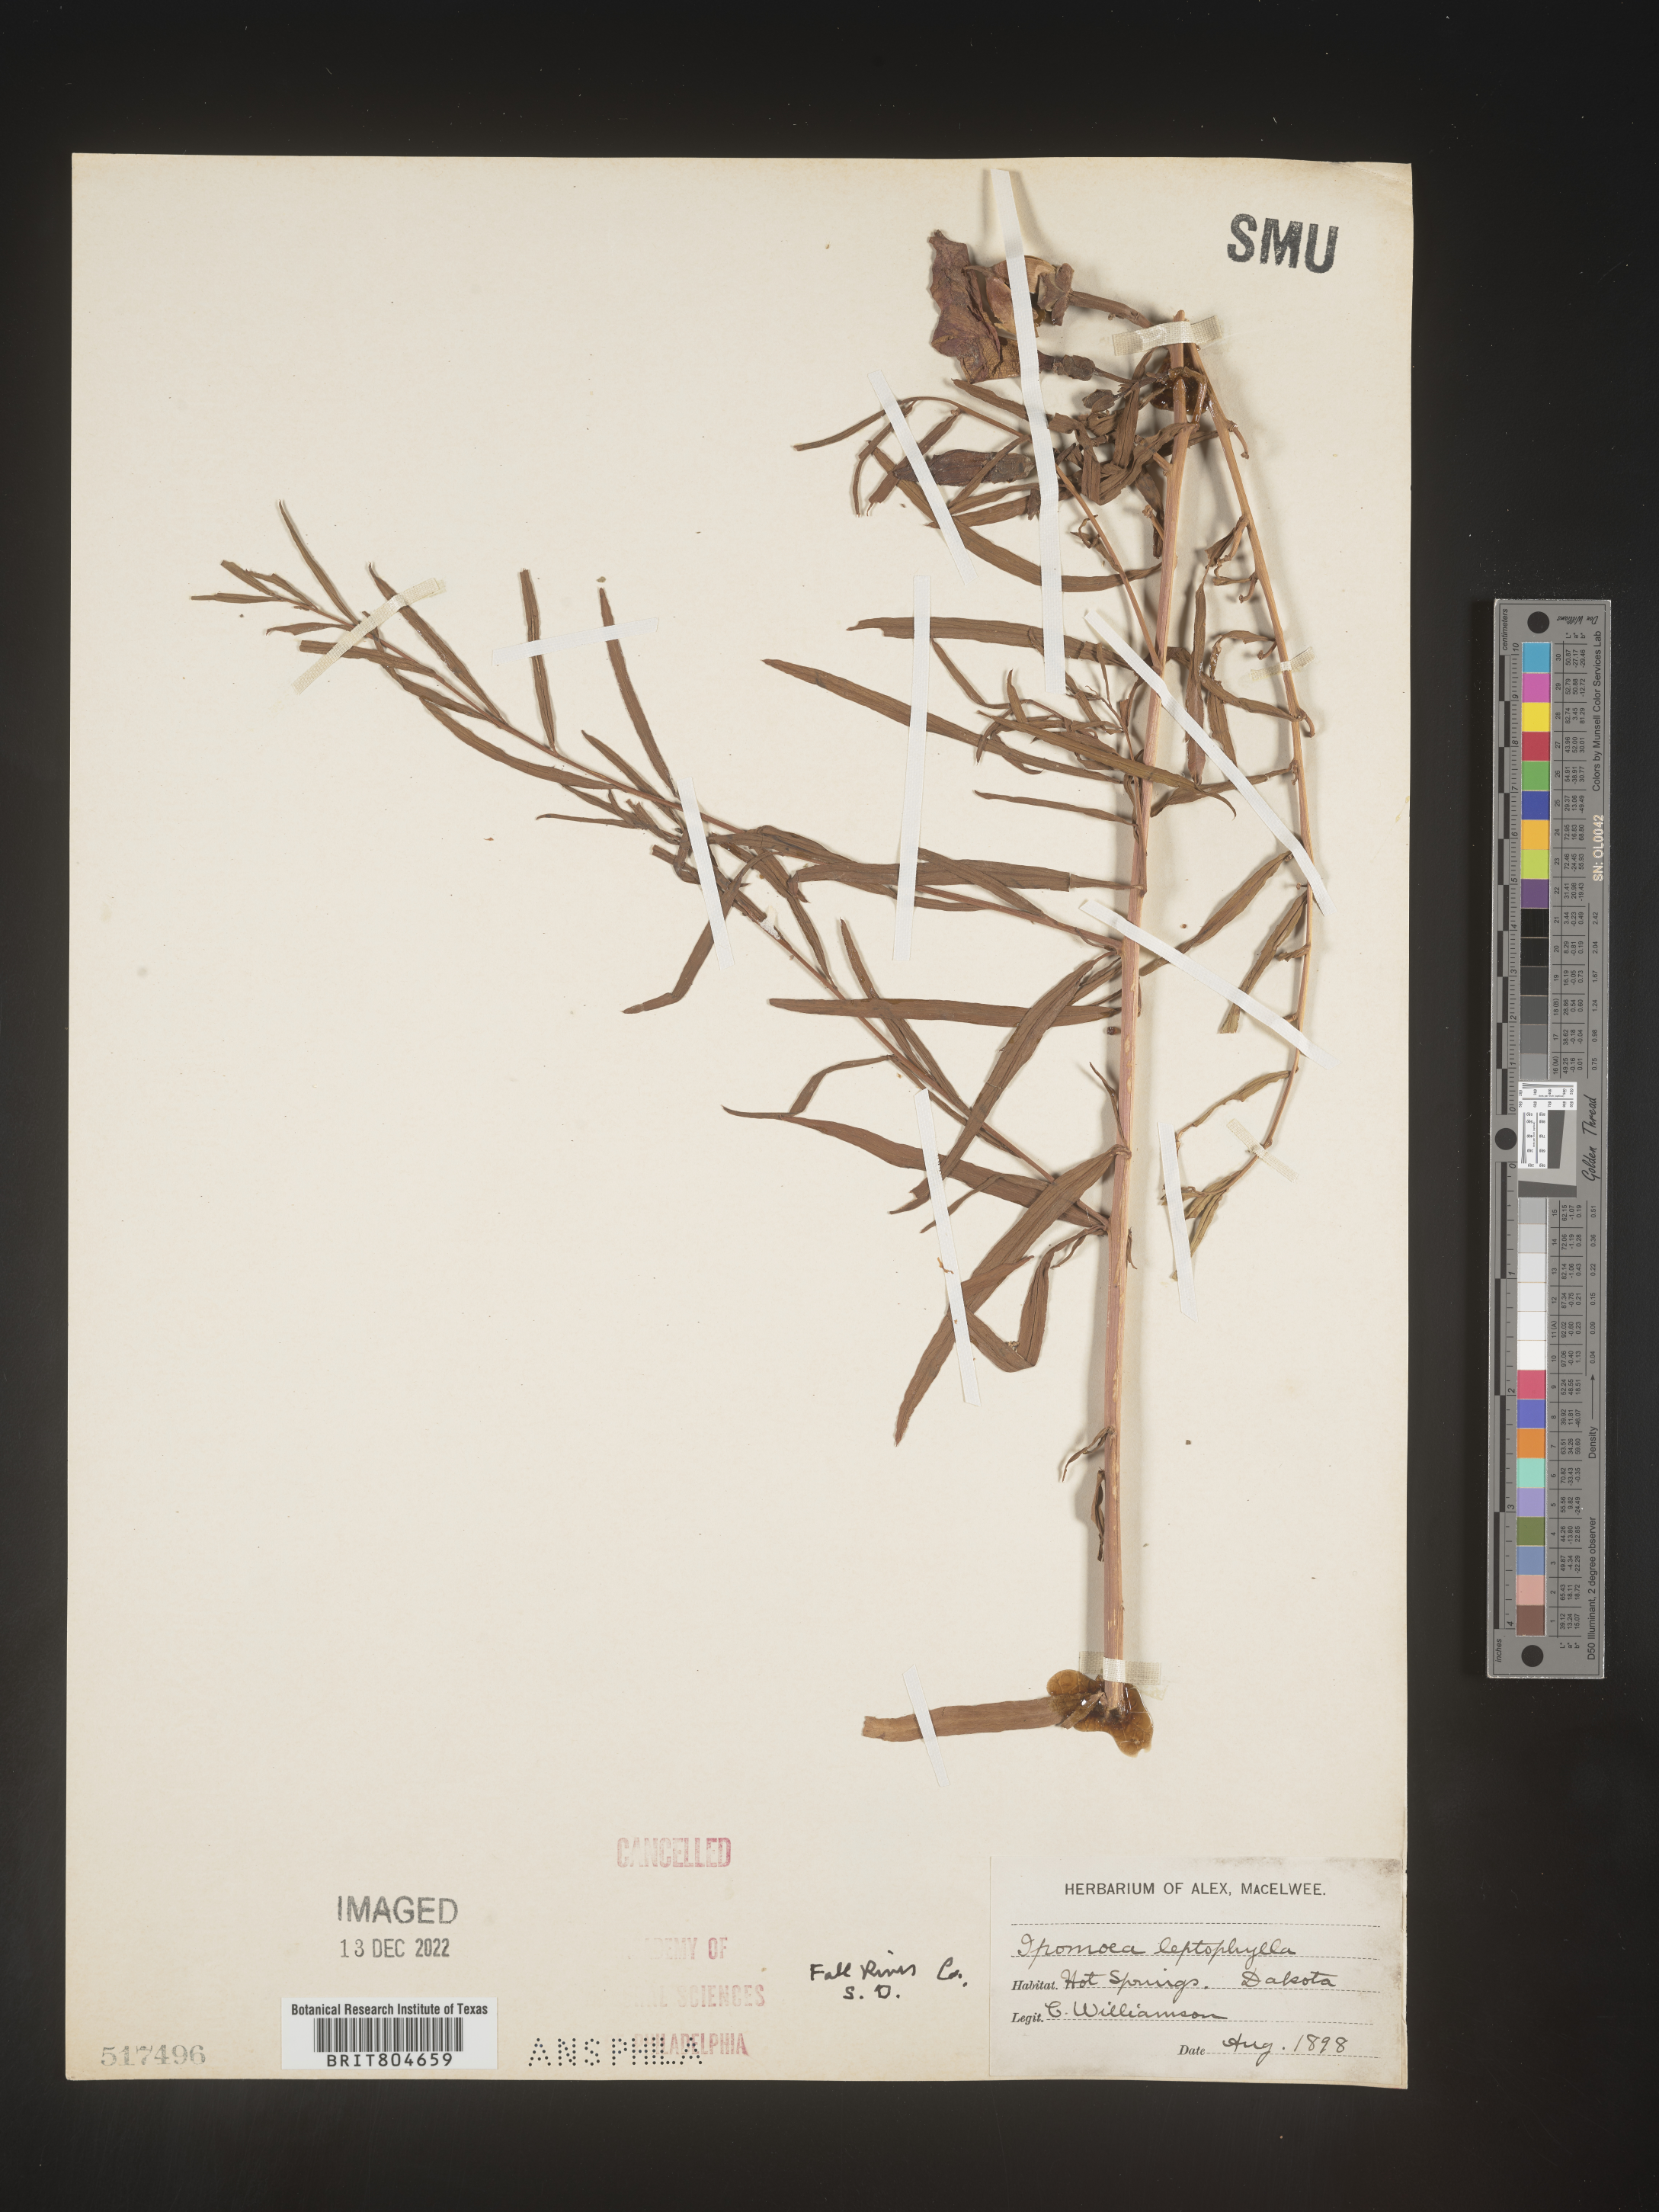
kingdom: Plantae
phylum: Tracheophyta
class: Magnoliopsida
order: Solanales
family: Convolvulaceae
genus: Ipomoea
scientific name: Ipomoea leptophylla
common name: Bush moonflower
